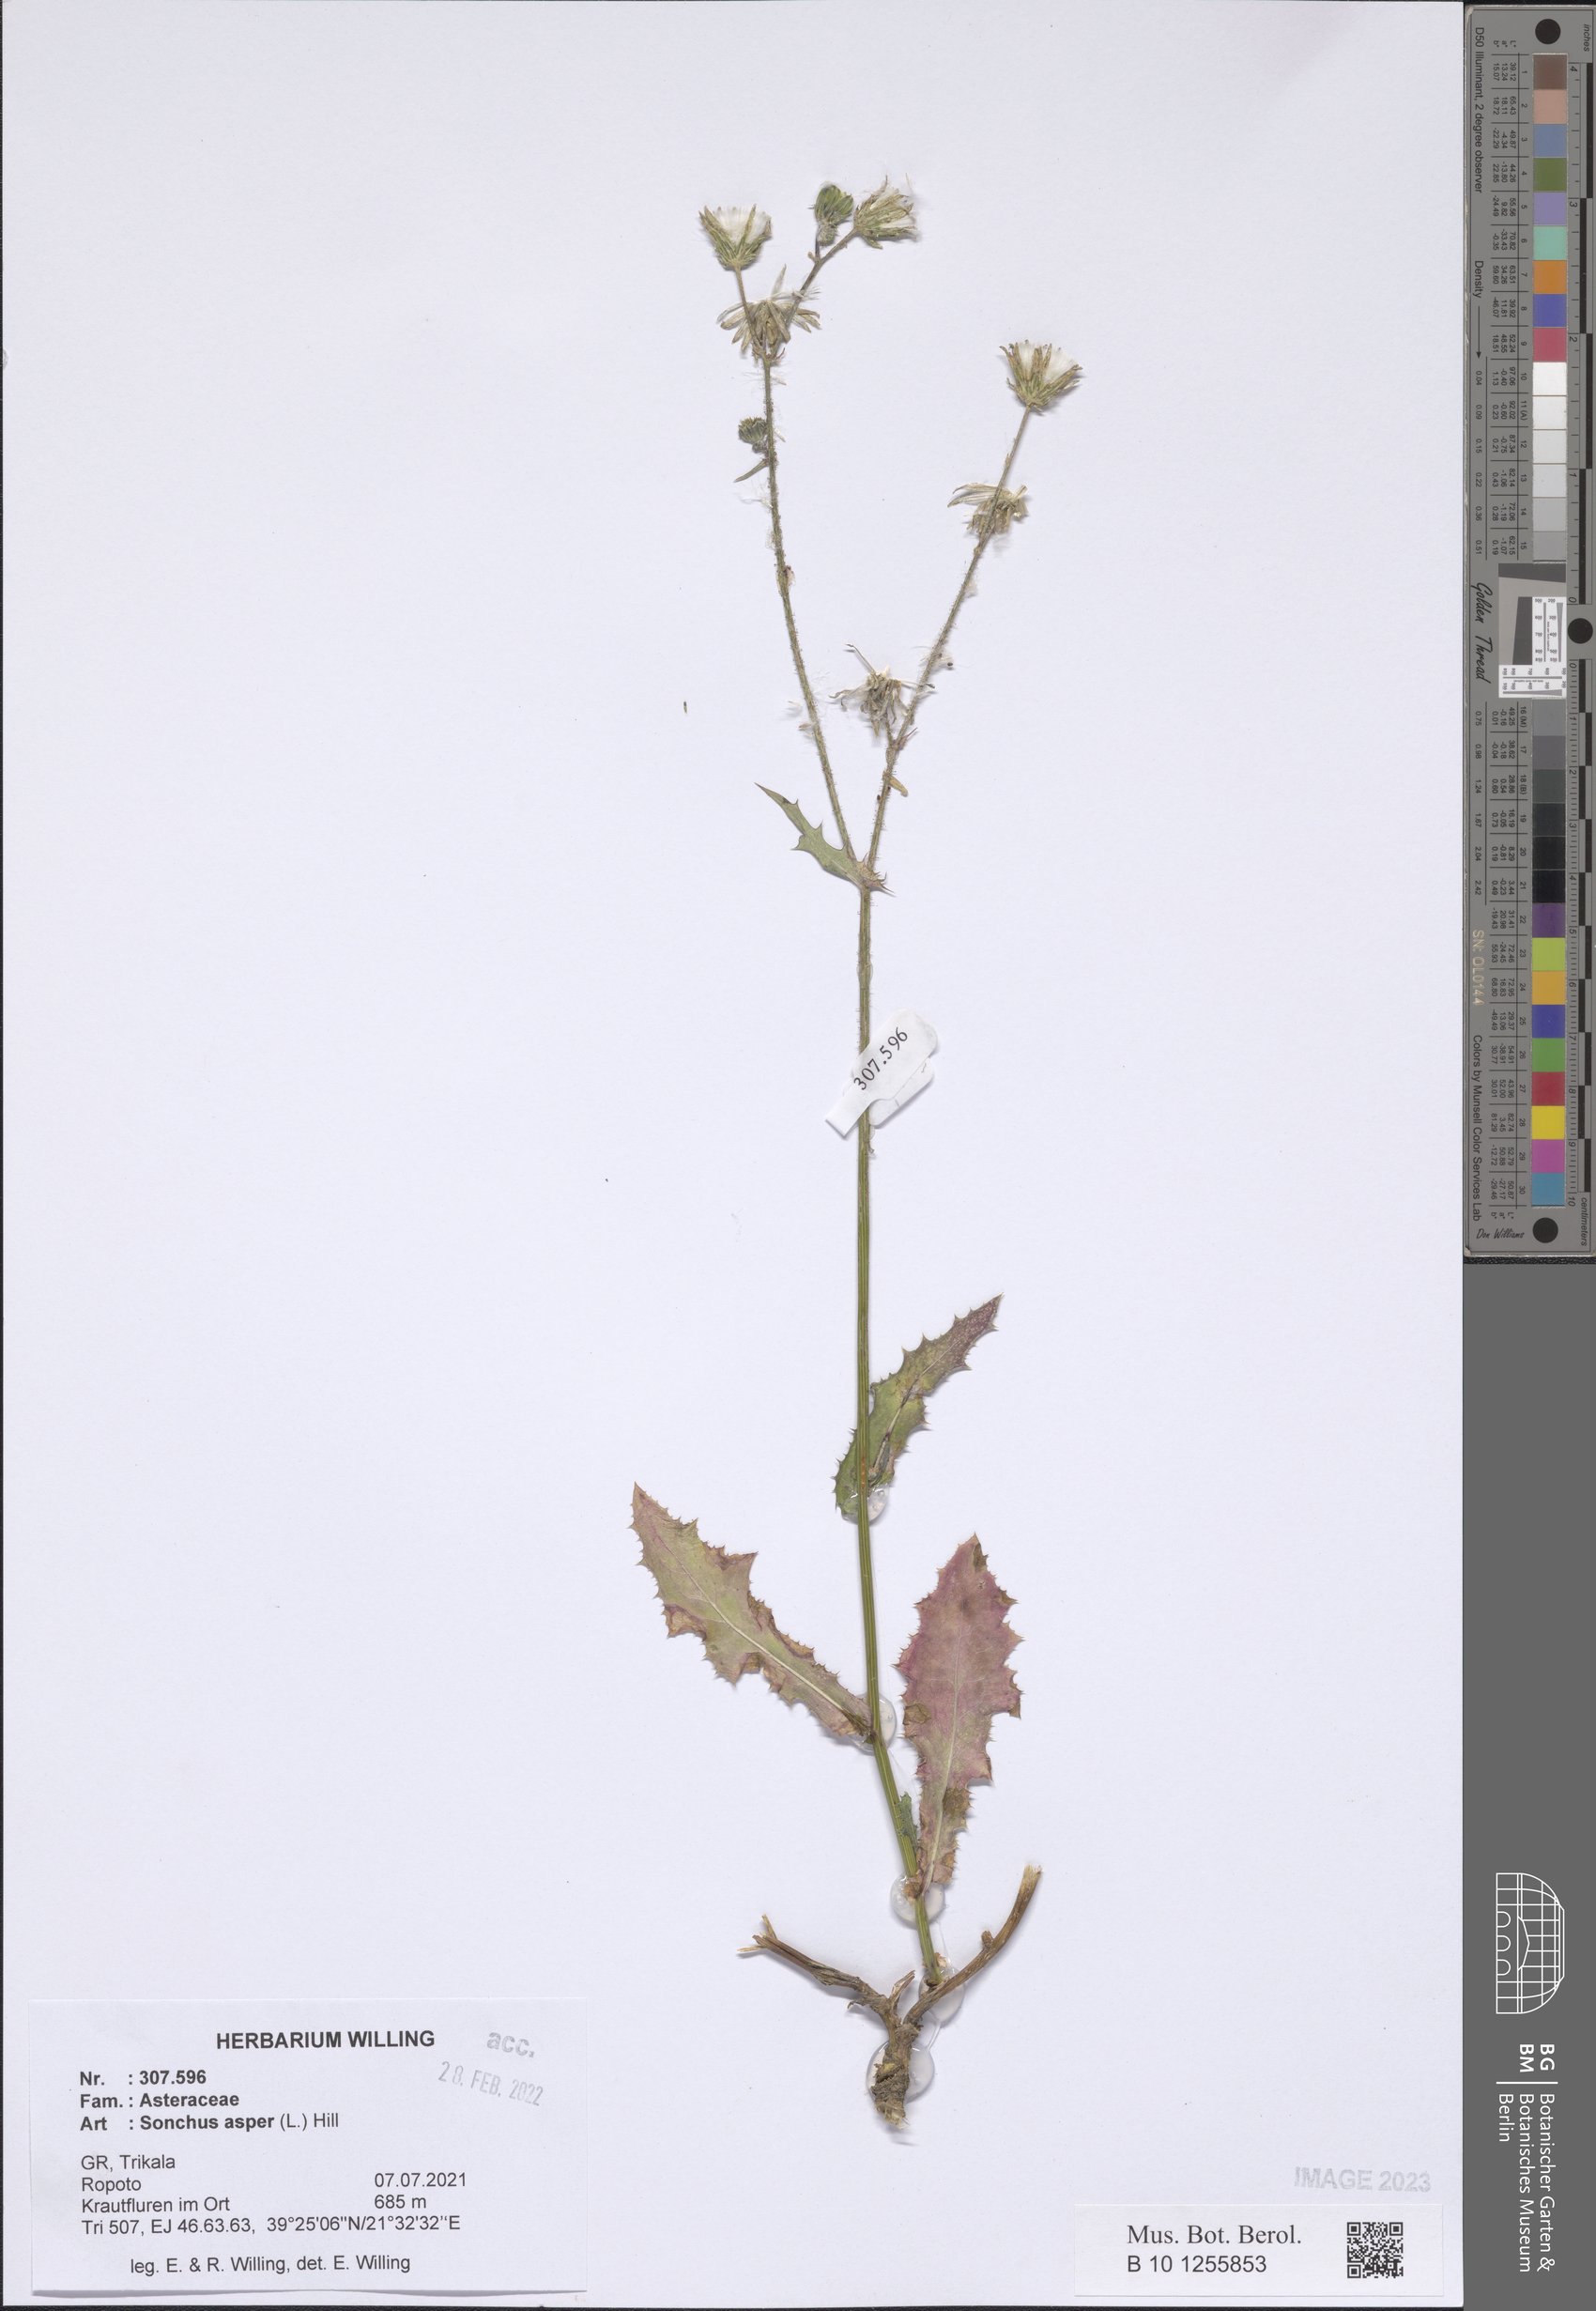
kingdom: Plantae
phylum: Tracheophyta
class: Magnoliopsida
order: Asterales
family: Asteraceae
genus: Sonchus
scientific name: Sonchus asper
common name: Prickly sow-thistle
